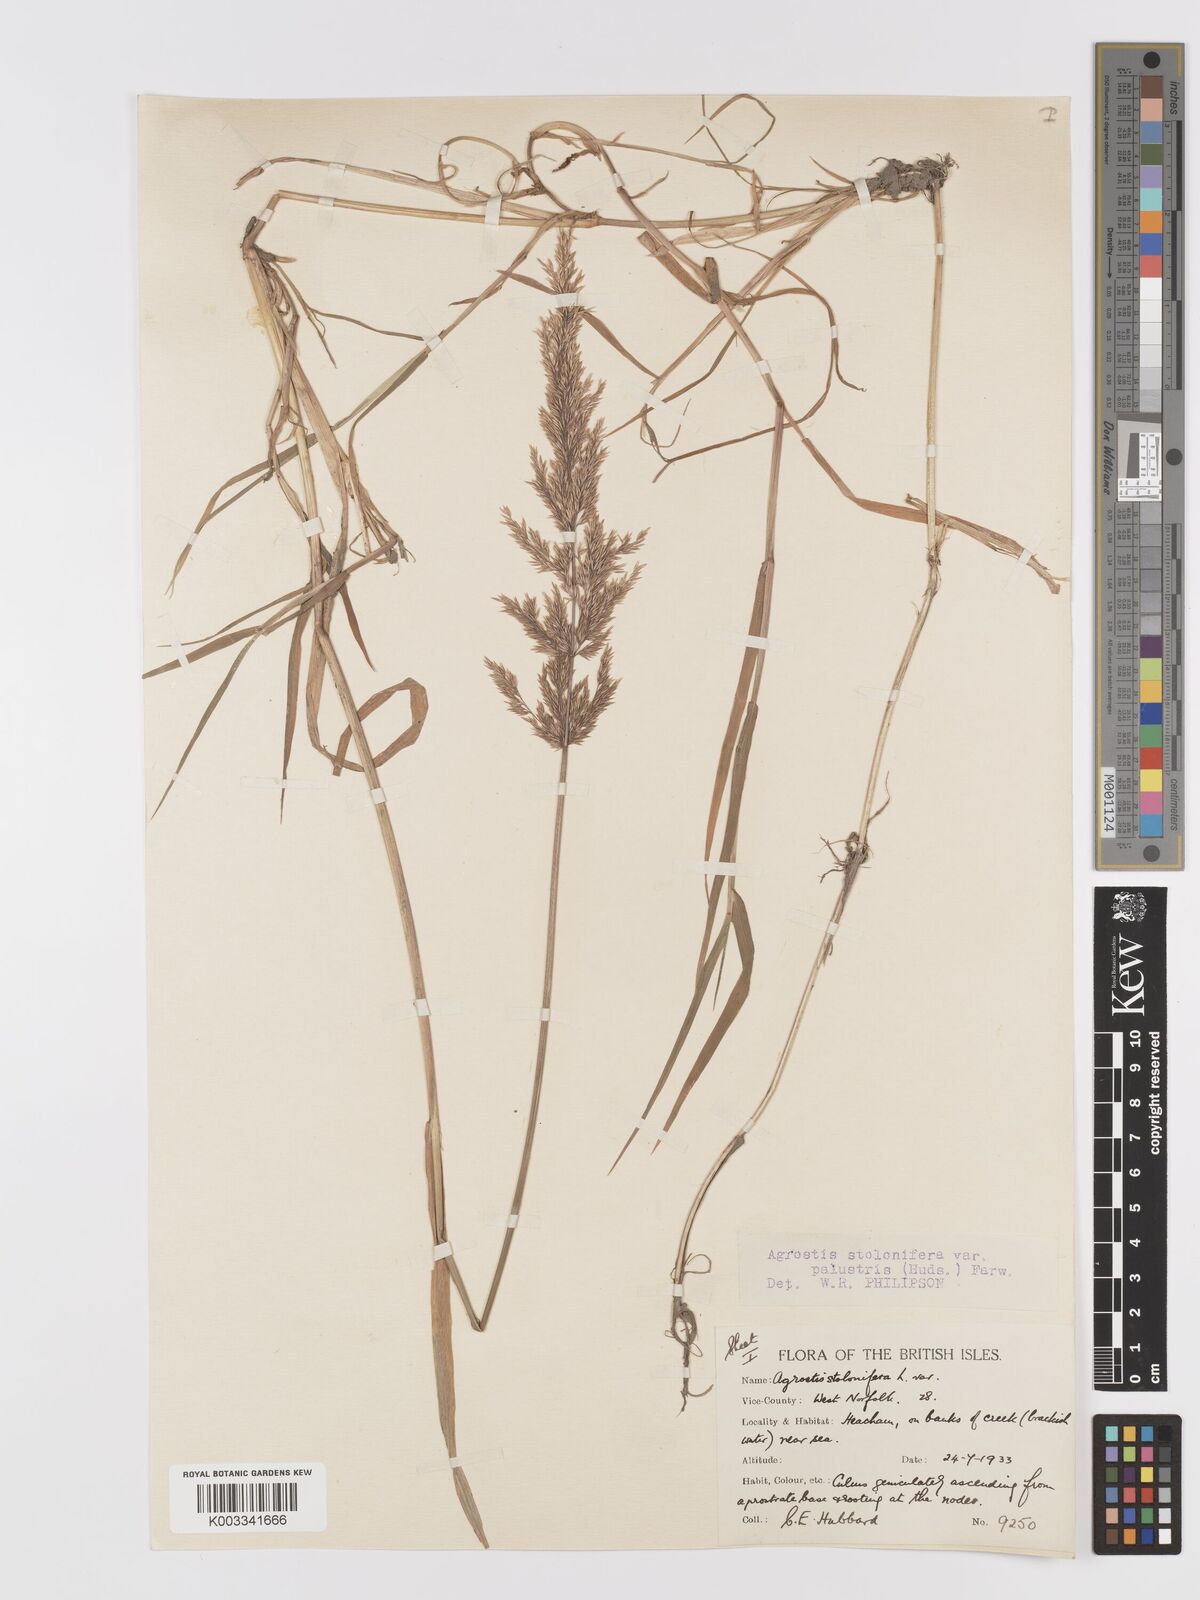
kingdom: Plantae
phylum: Tracheophyta
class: Liliopsida
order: Poales
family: Poaceae
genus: Agrostis
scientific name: Agrostis stolonifera
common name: Creeping bentgrass
